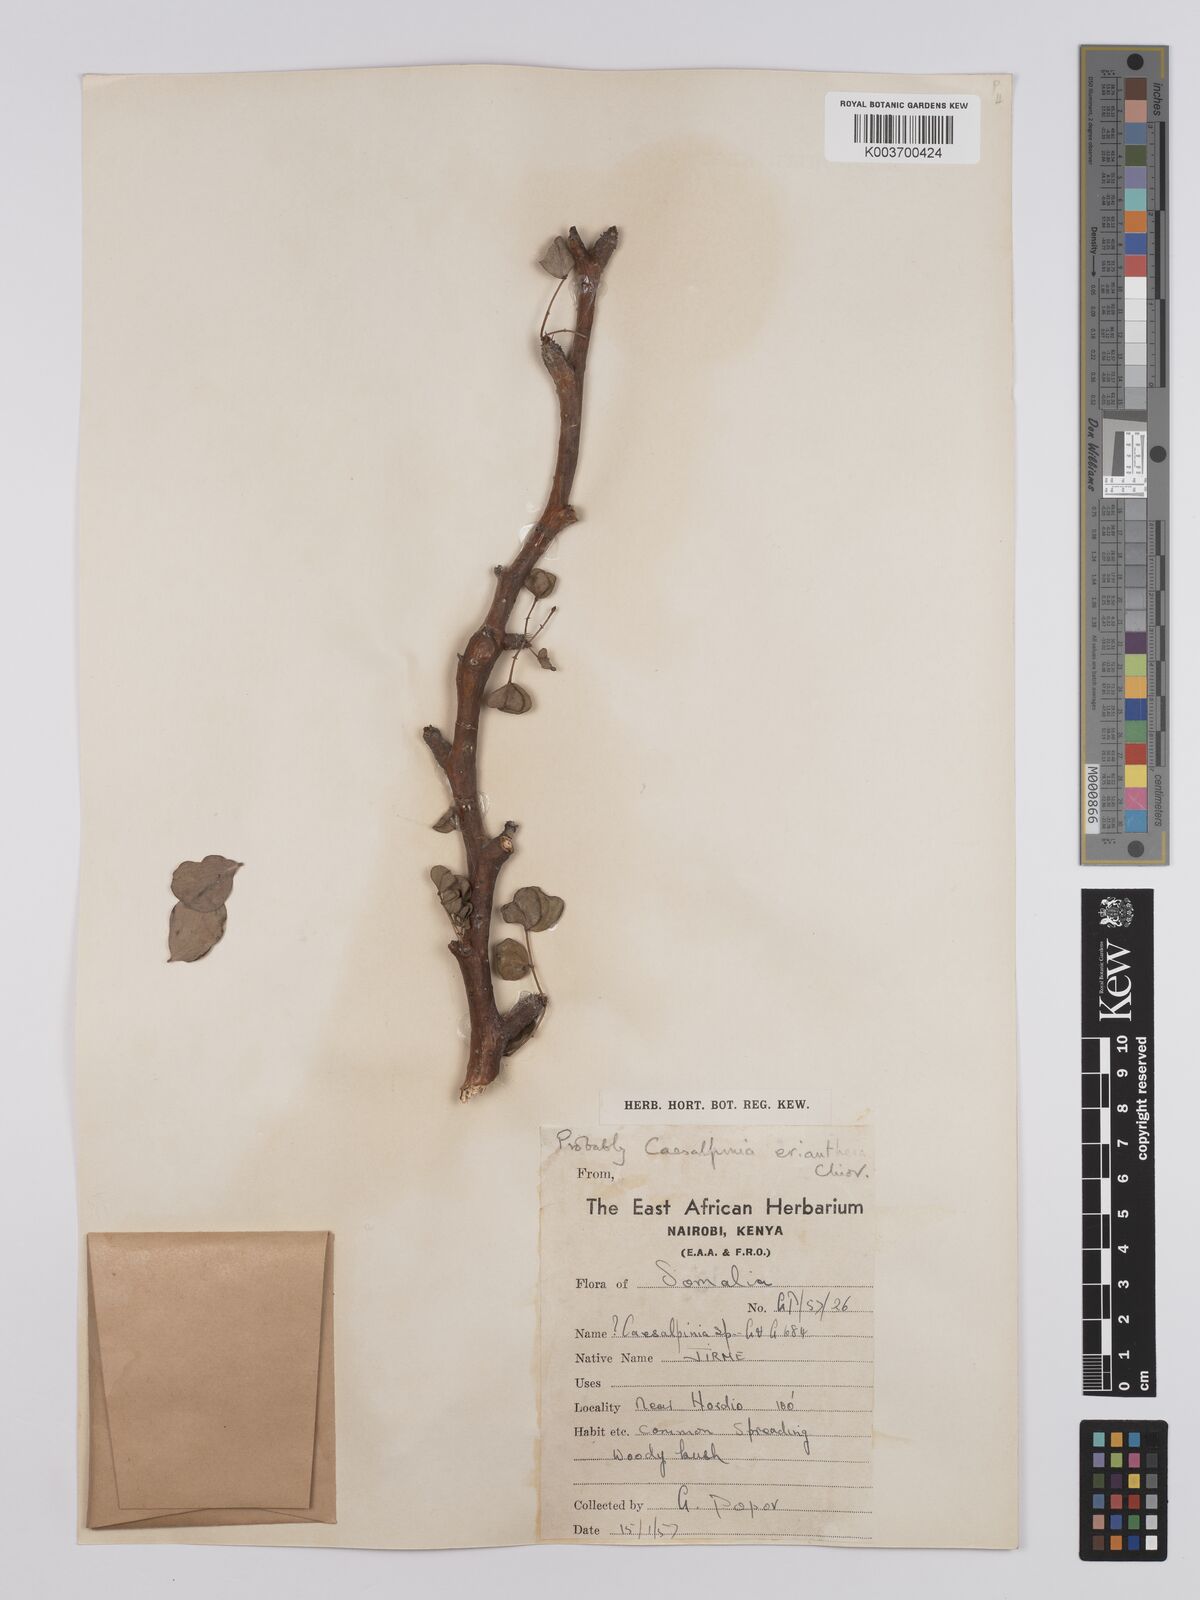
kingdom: Plantae
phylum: Tracheophyta
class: Magnoliopsida
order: Fabales
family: Fabaceae
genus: Denisophytum
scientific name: Denisophytum eriantherum
